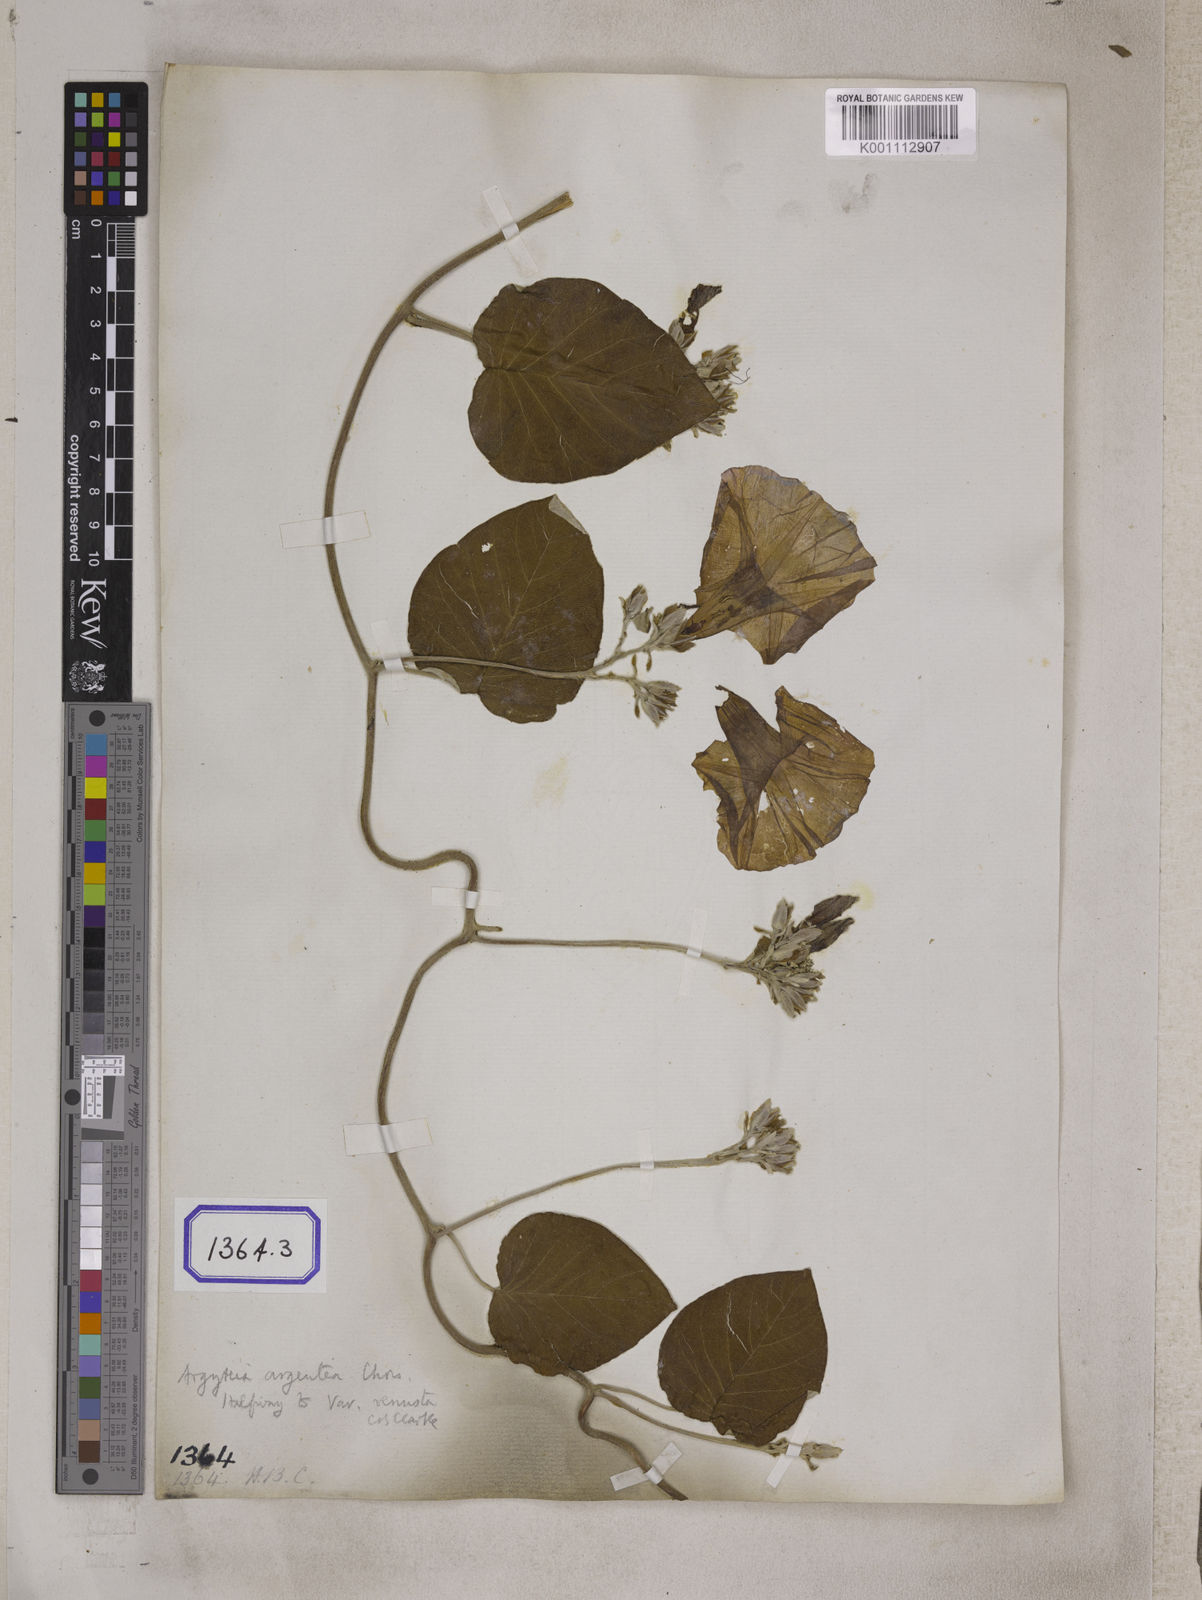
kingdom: Plantae
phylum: Tracheophyta
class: Magnoliopsida
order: Solanales
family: Convolvulaceae
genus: Convolvulus
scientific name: Convolvulus
